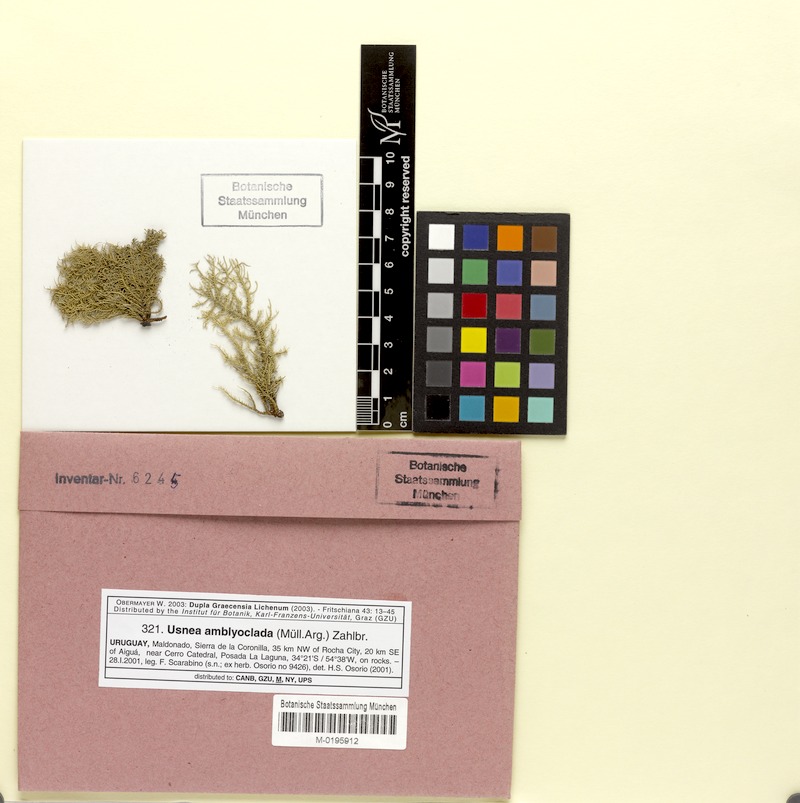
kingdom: Fungi
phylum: Ascomycota
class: Lecanoromycetes
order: Lecanorales
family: Parmeliaceae
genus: Usnea
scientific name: Usnea amblyoclada
